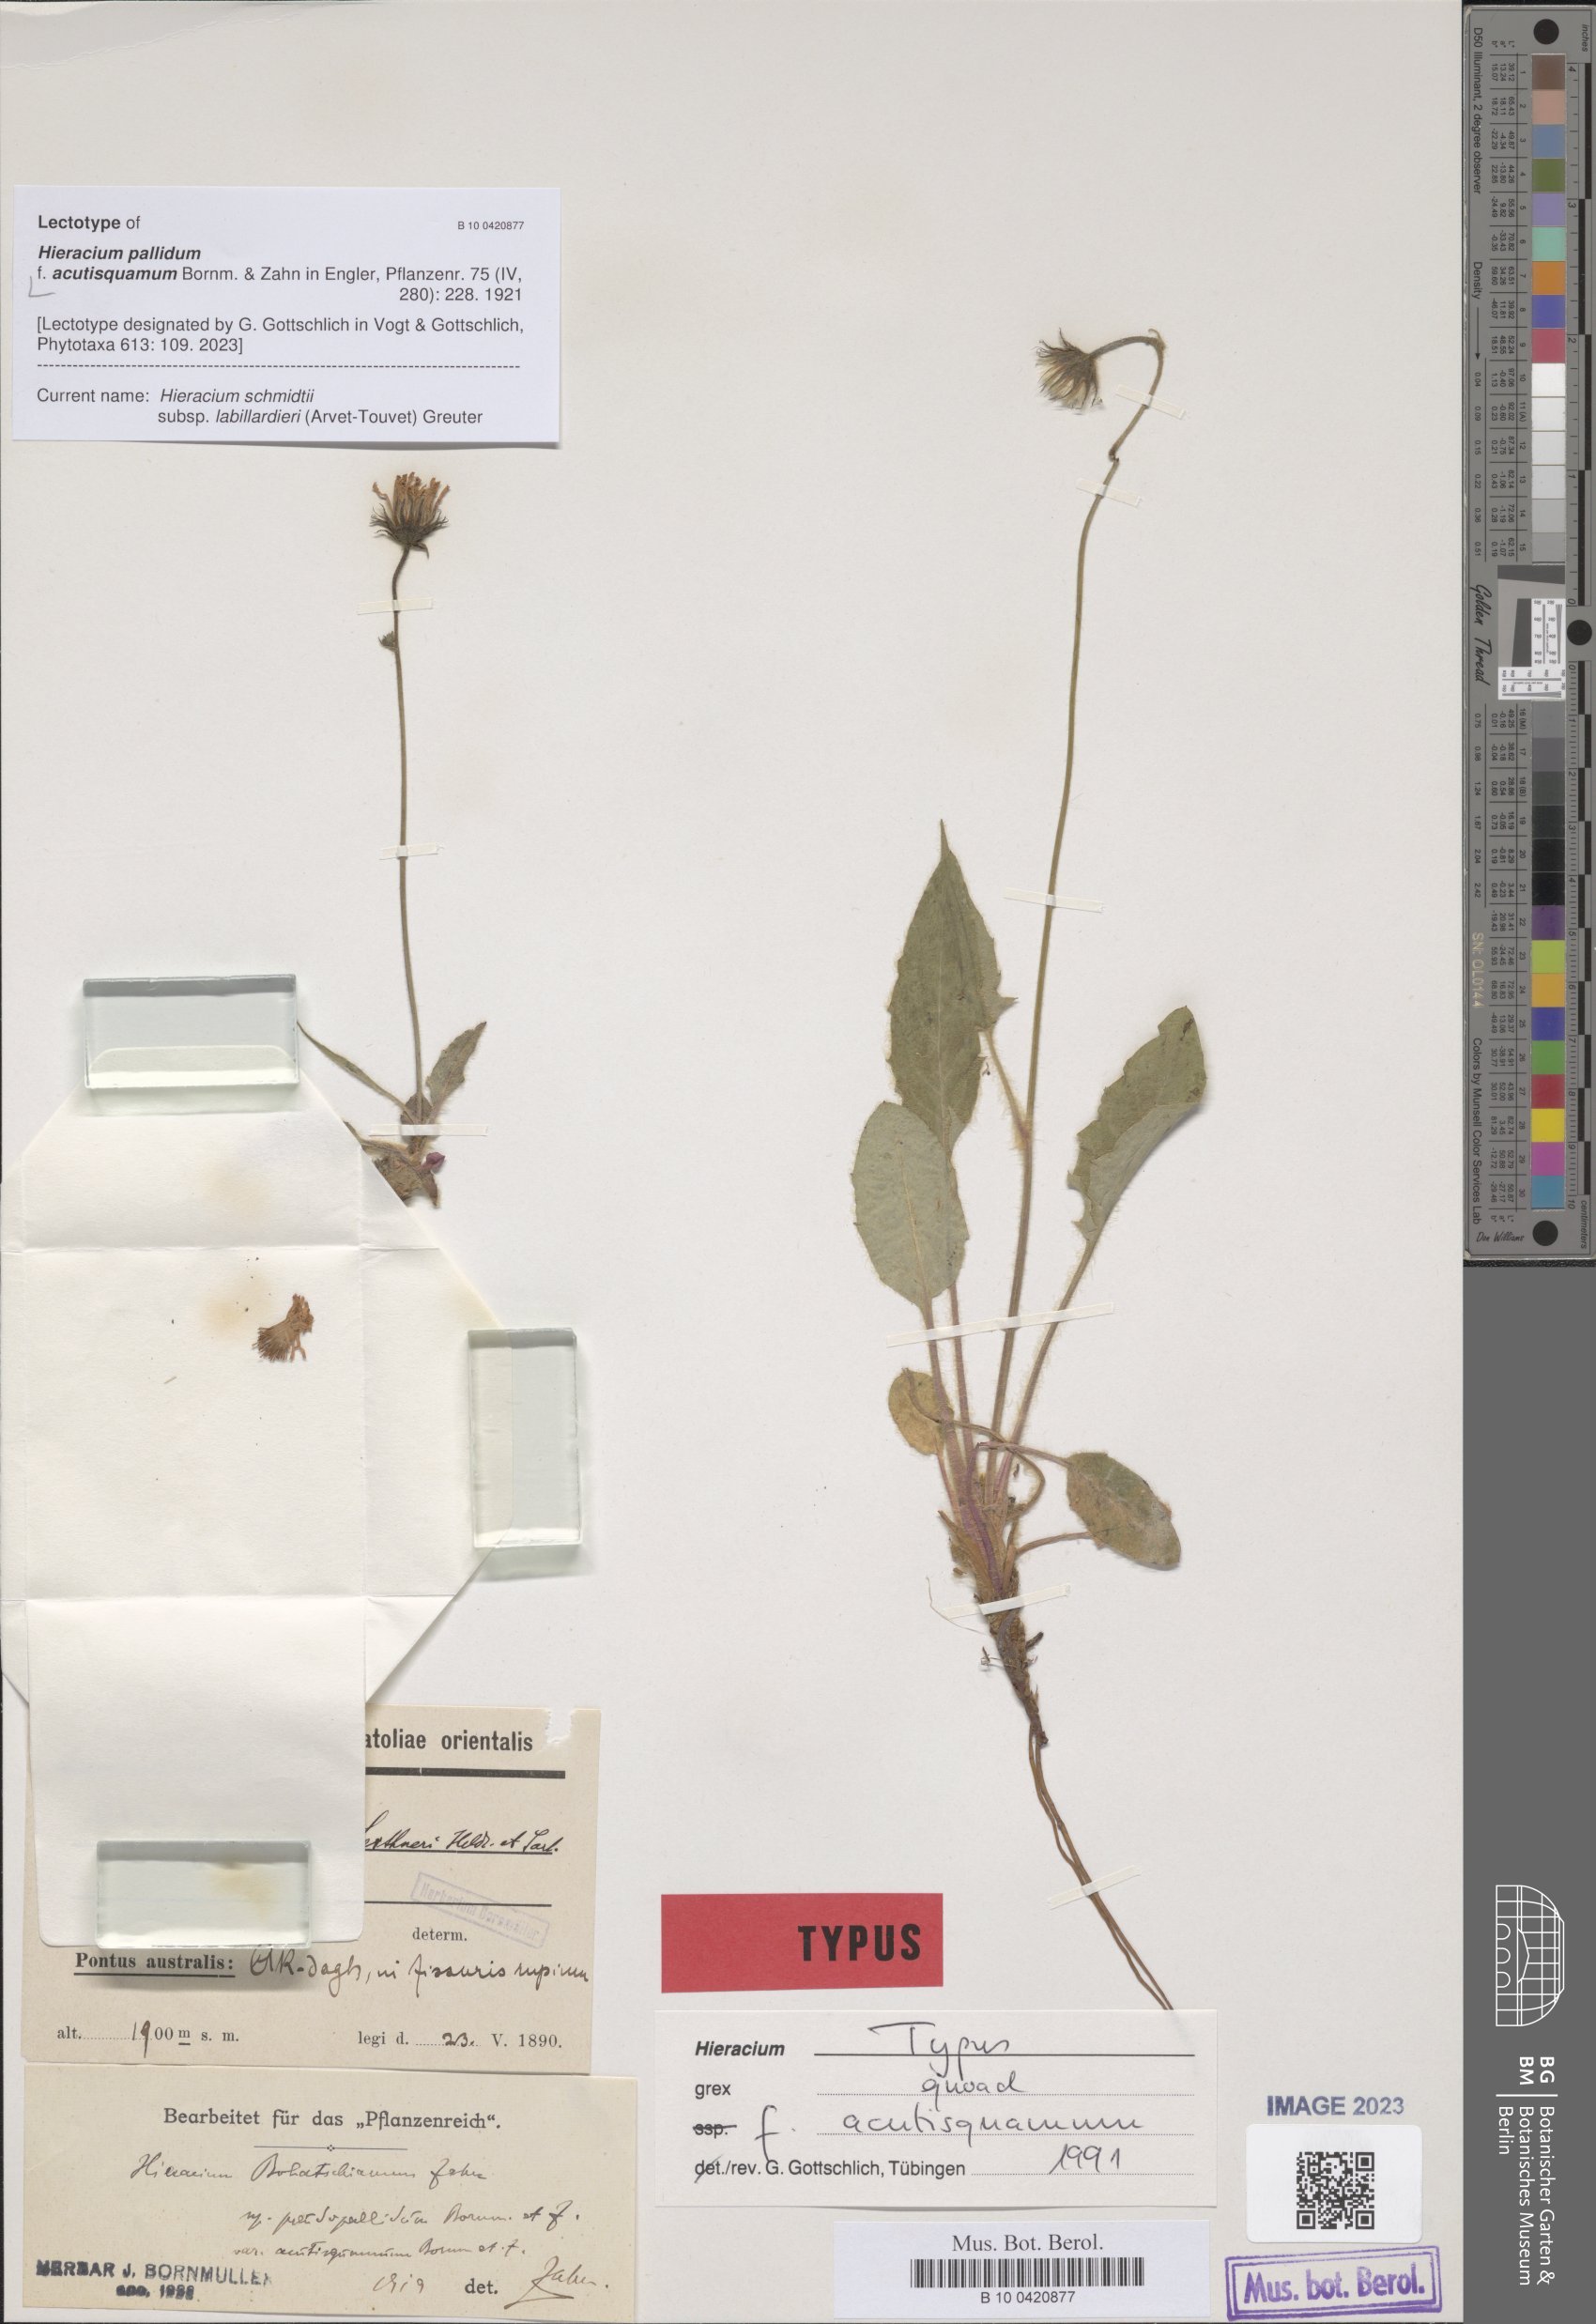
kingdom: Plantae
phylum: Tracheophyta
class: Magnoliopsida
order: Asterales
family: Asteraceae
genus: Hieracium
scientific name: Hieracium pallidum
